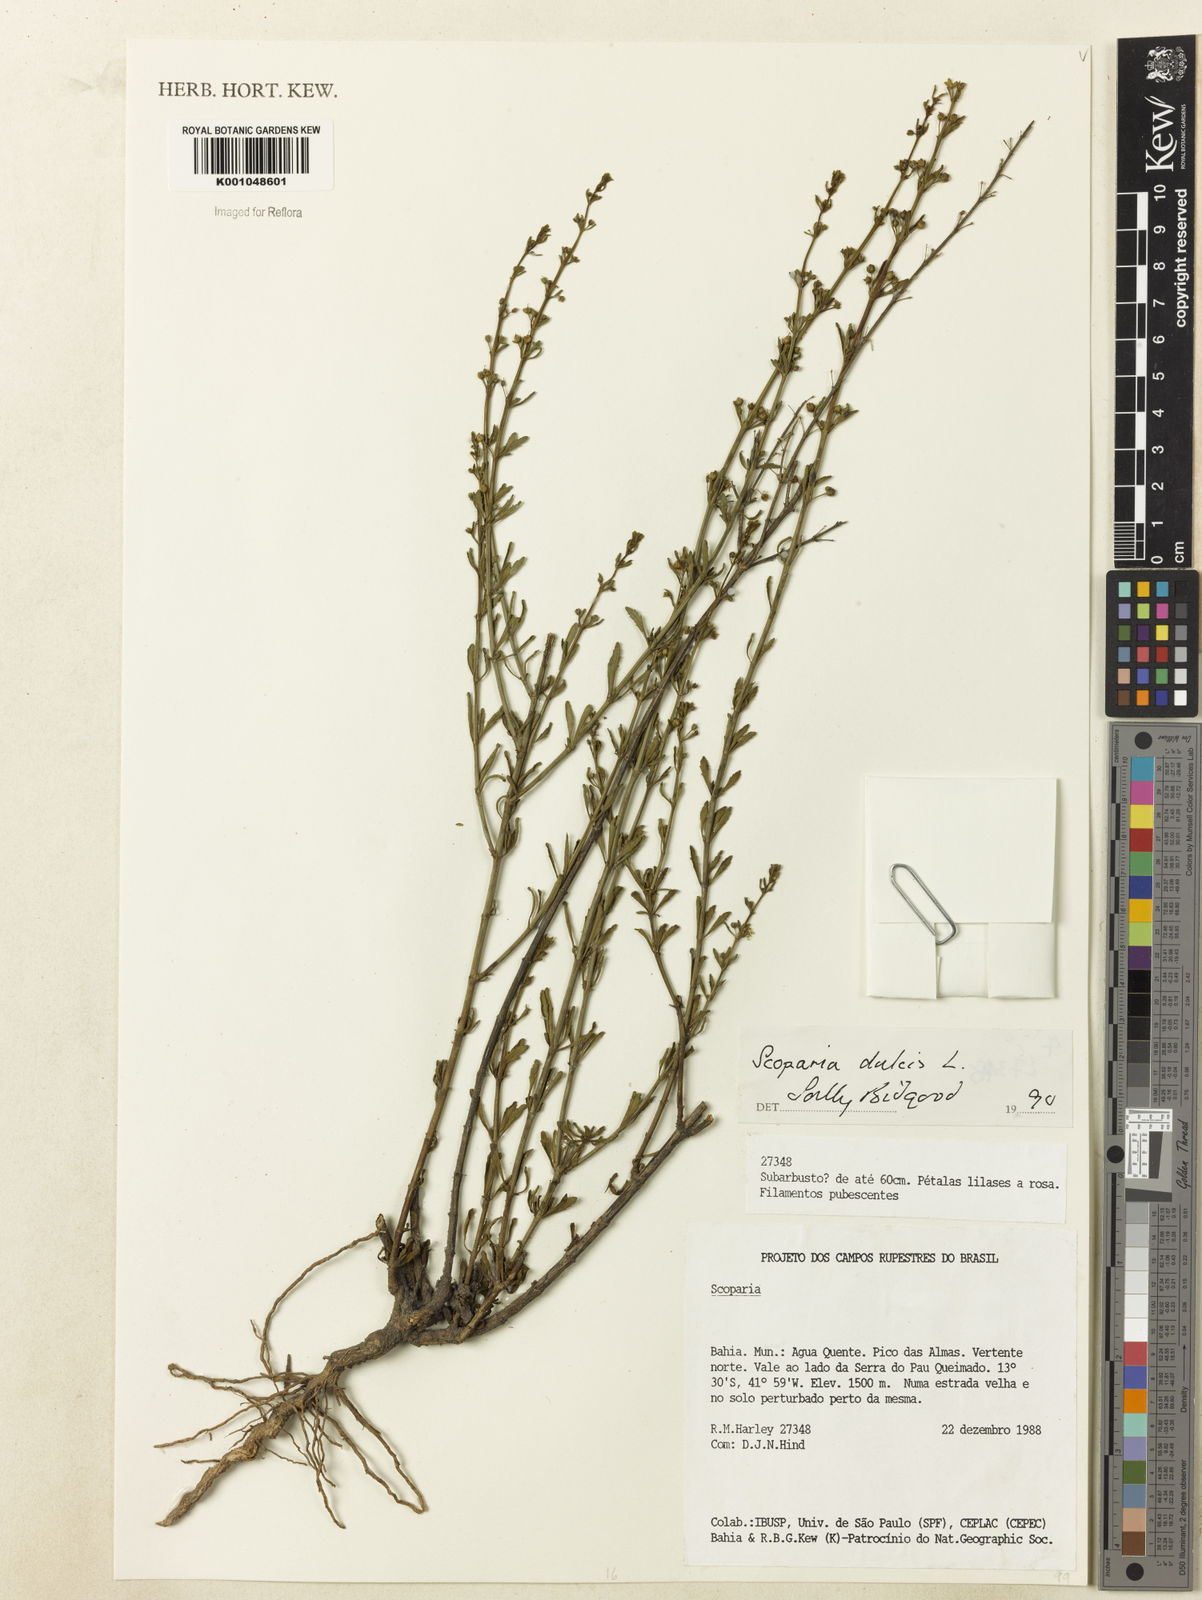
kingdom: Plantae
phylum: Tracheophyta
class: Magnoliopsida
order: Lamiales
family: Plantaginaceae
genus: Scoparia
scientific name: Scoparia dulcis
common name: Scoparia-weed
